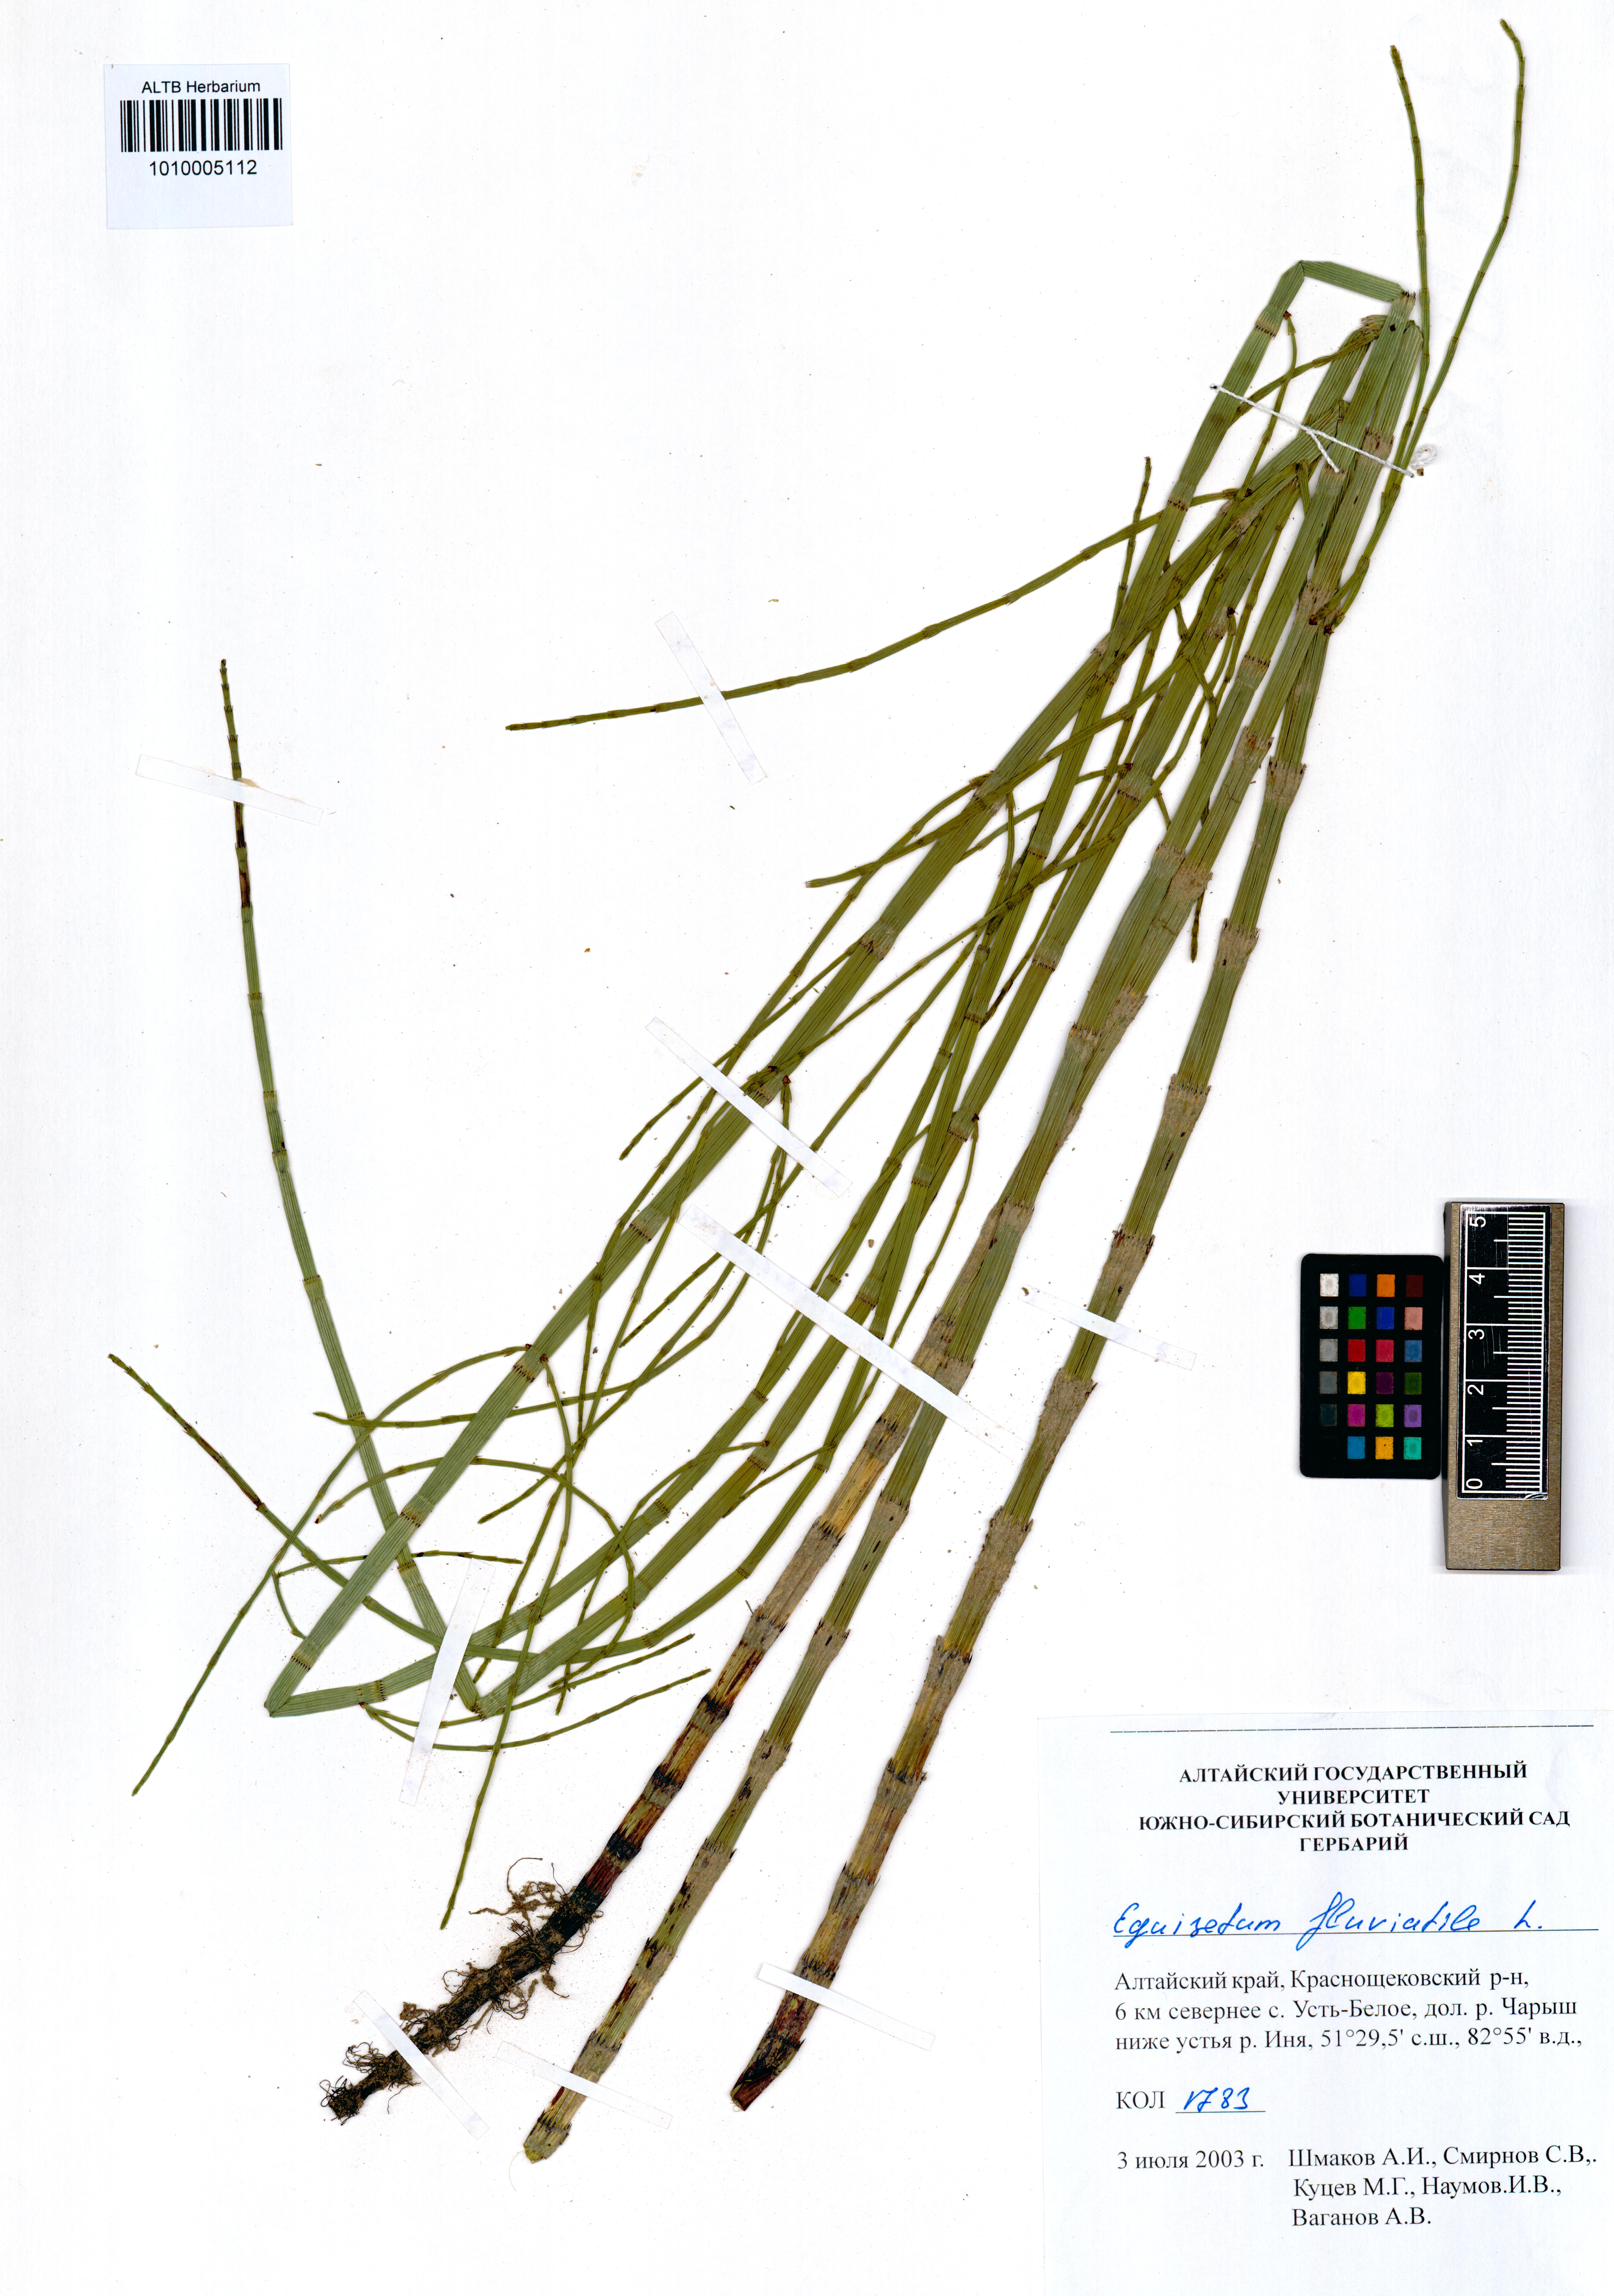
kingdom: Plantae
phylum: Tracheophyta
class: Polypodiopsida
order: Equisetales
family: Equisetaceae
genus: Equisetum
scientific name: Equisetum fluviatile
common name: Water horsetail
